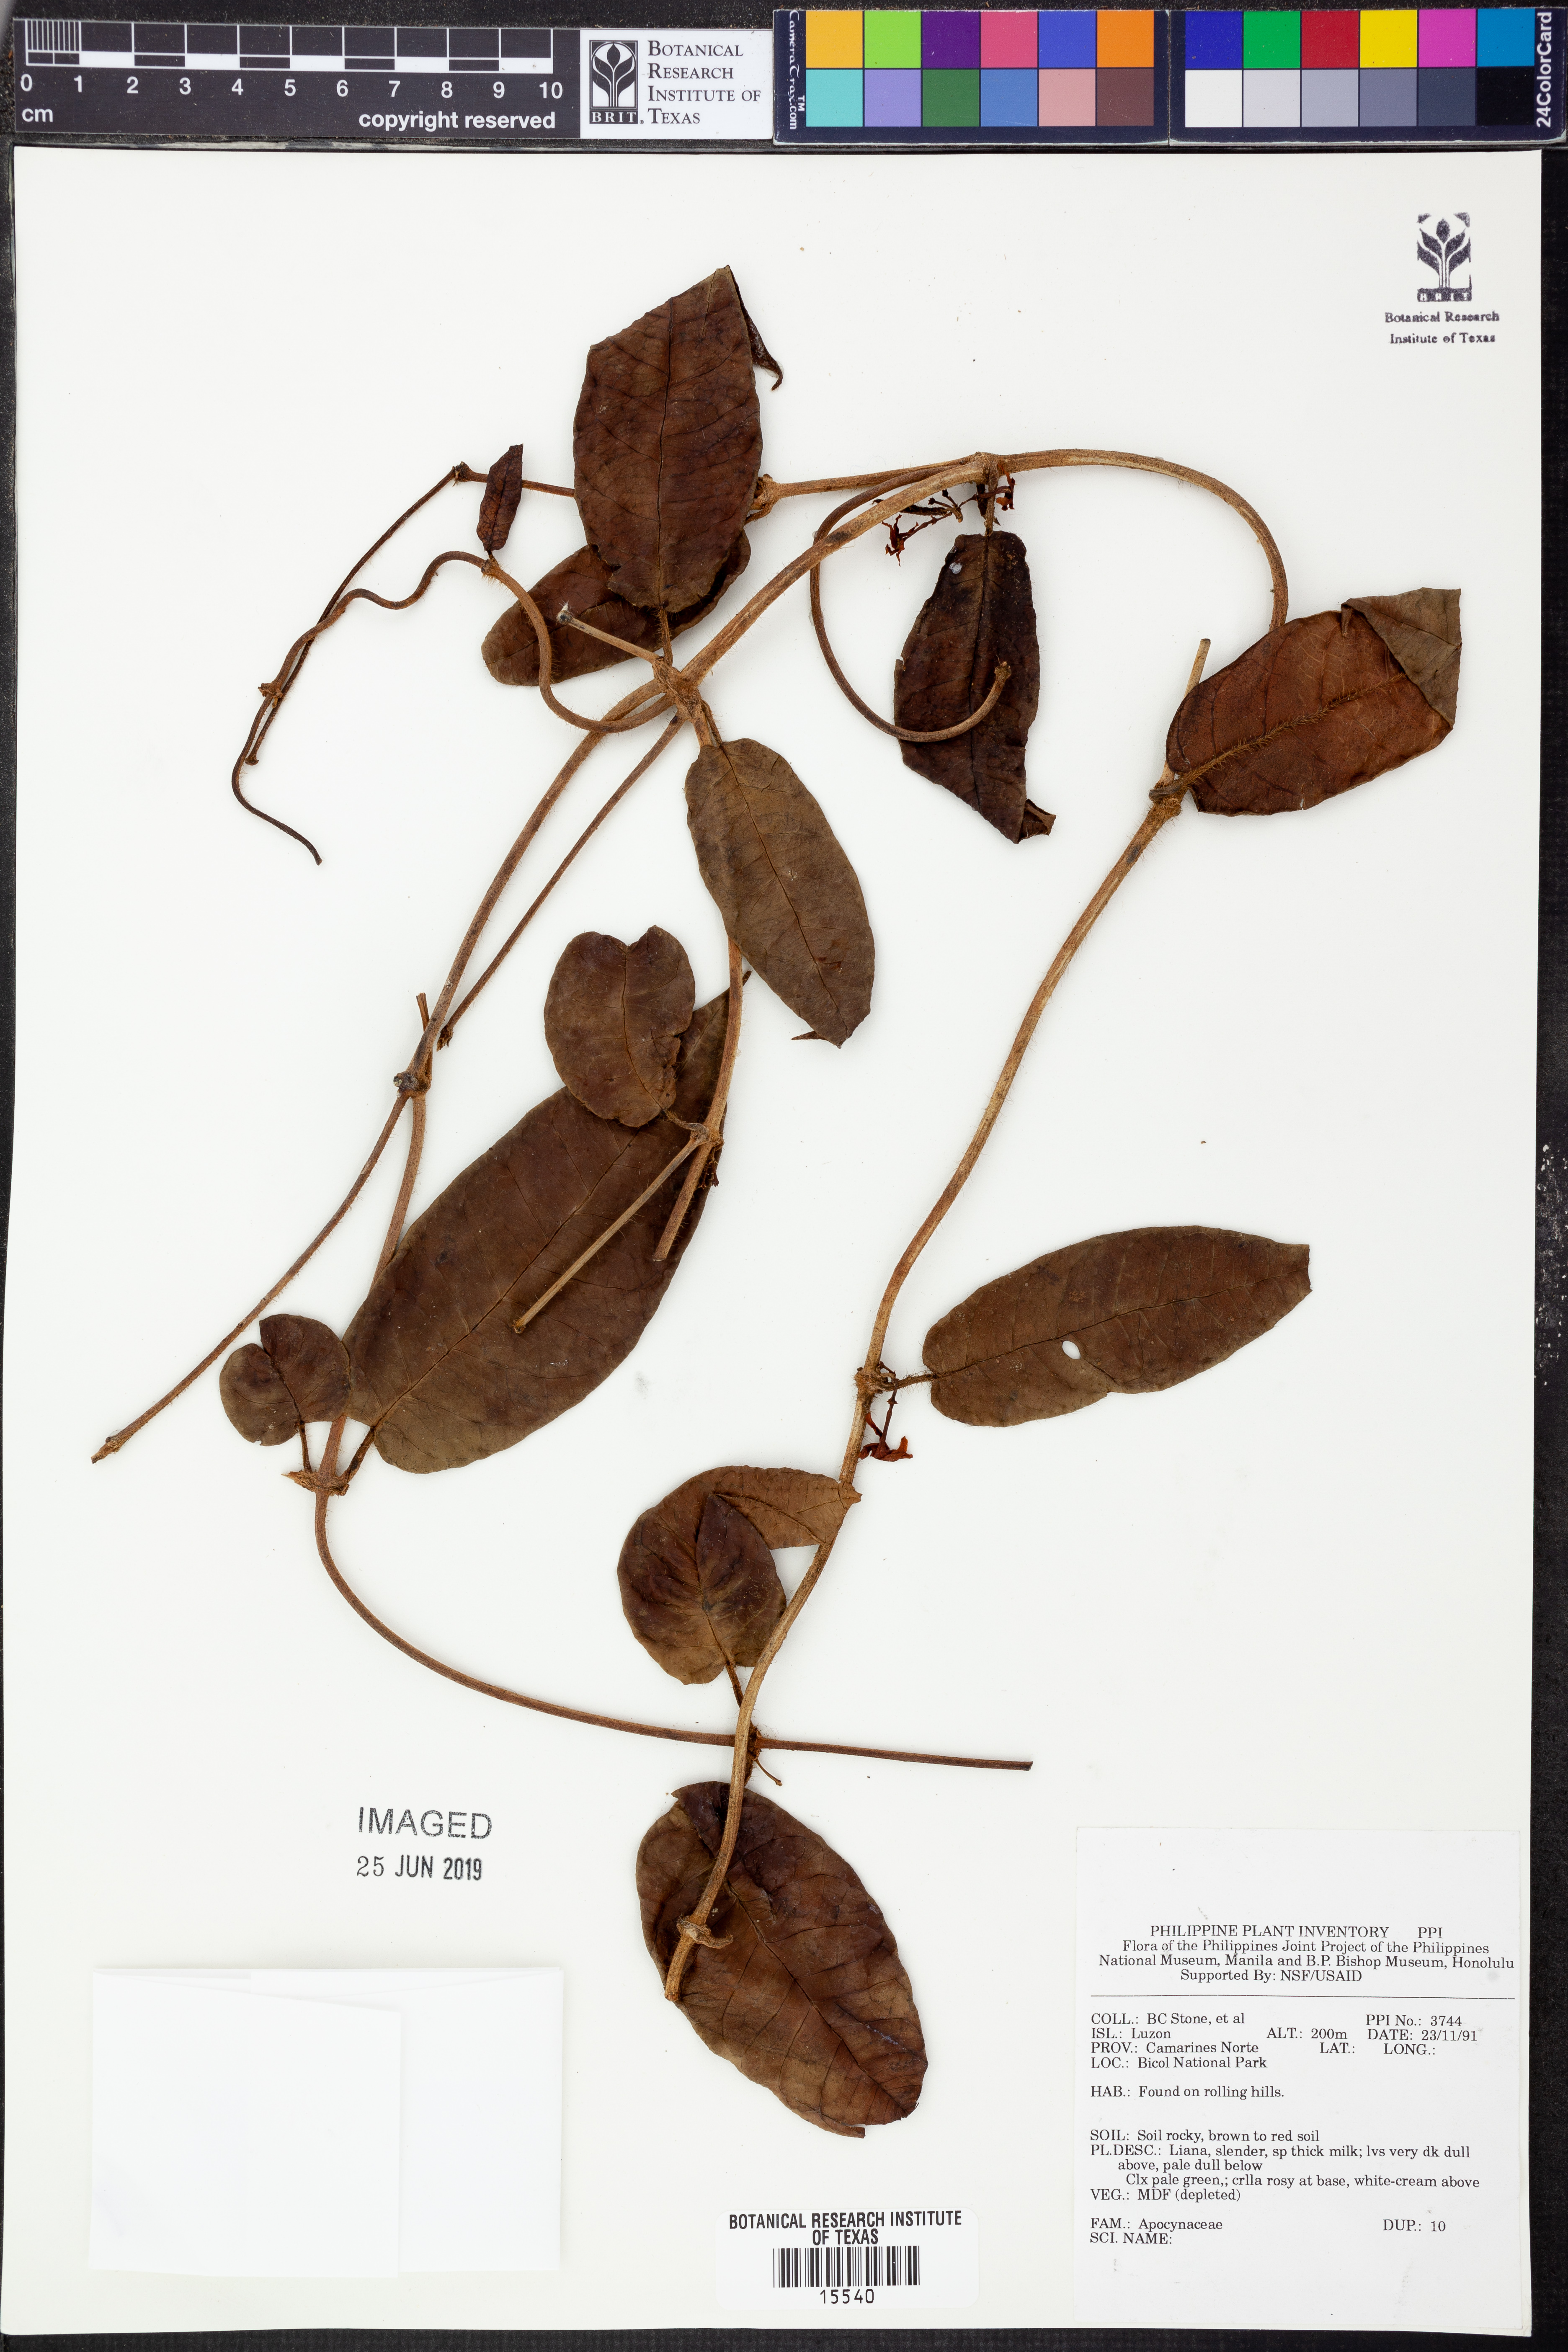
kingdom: Plantae
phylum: Tracheophyta
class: Magnoliopsida
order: Gentianales
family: Apocynaceae
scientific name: Apocynaceae
